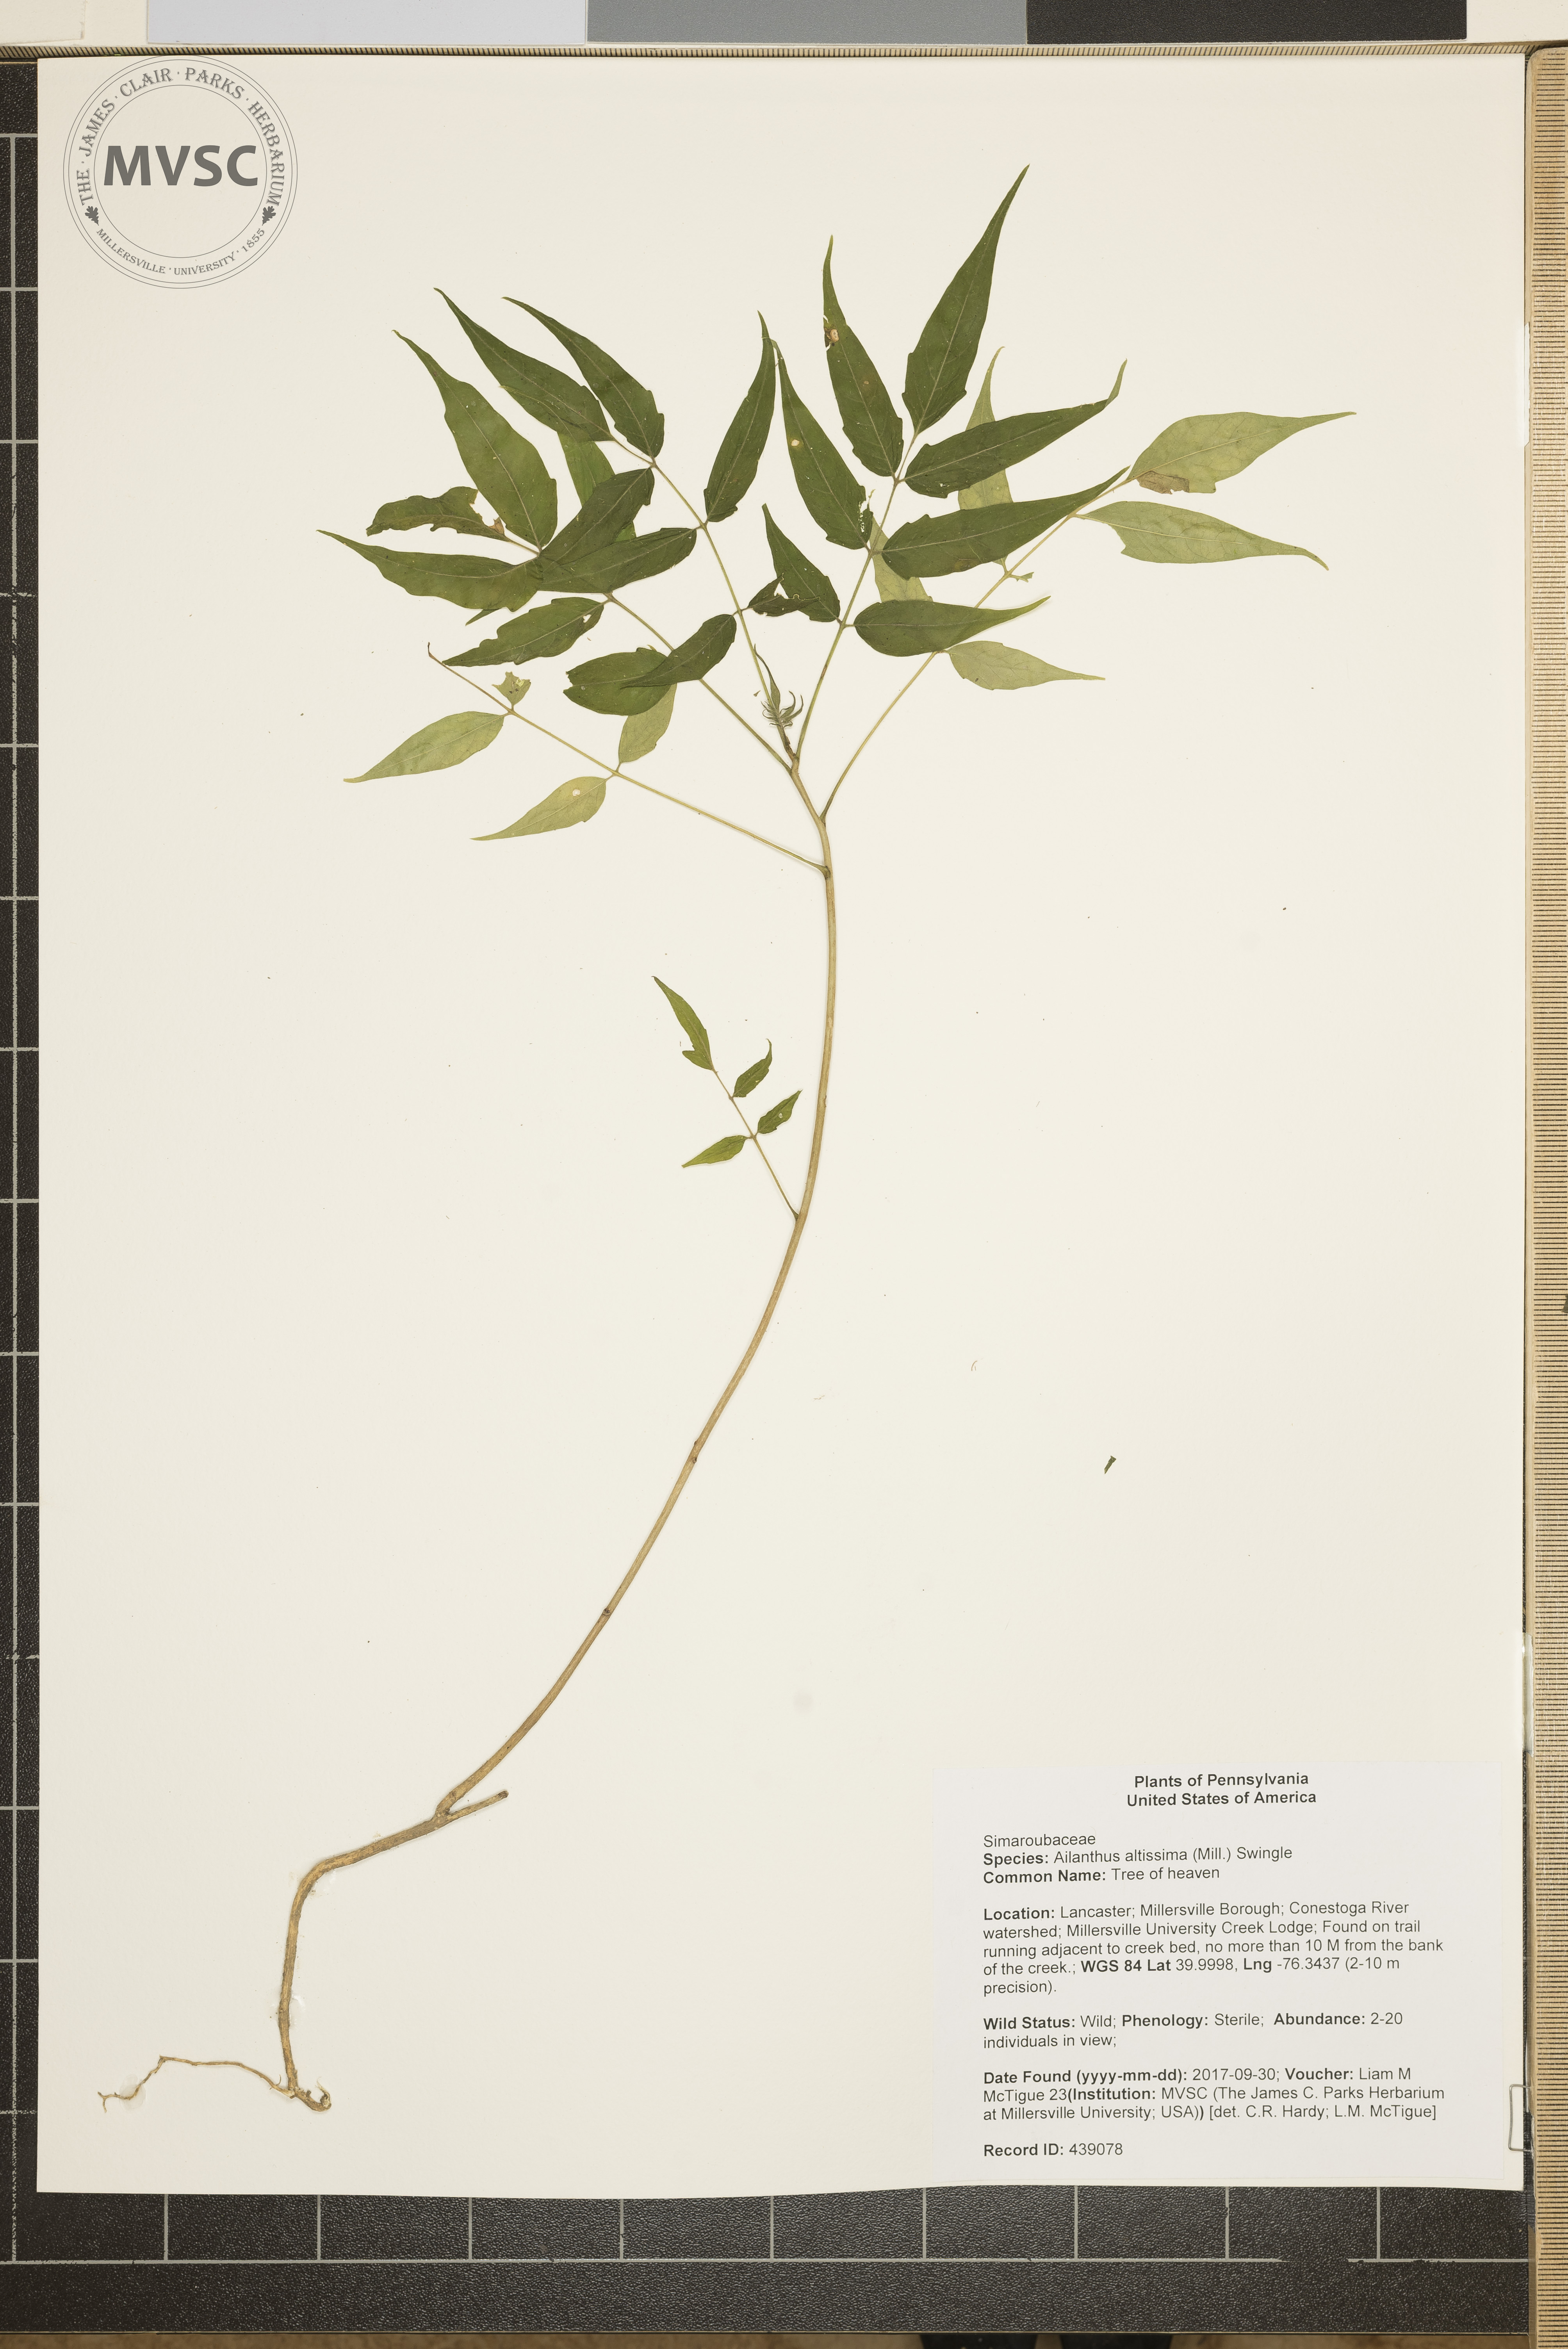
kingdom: Plantae
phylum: Tracheophyta
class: Magnoliopsida
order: Sapindales
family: Simaroubaceae
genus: Ailanthus
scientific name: Ailanthus altissima
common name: Tree of heaven
